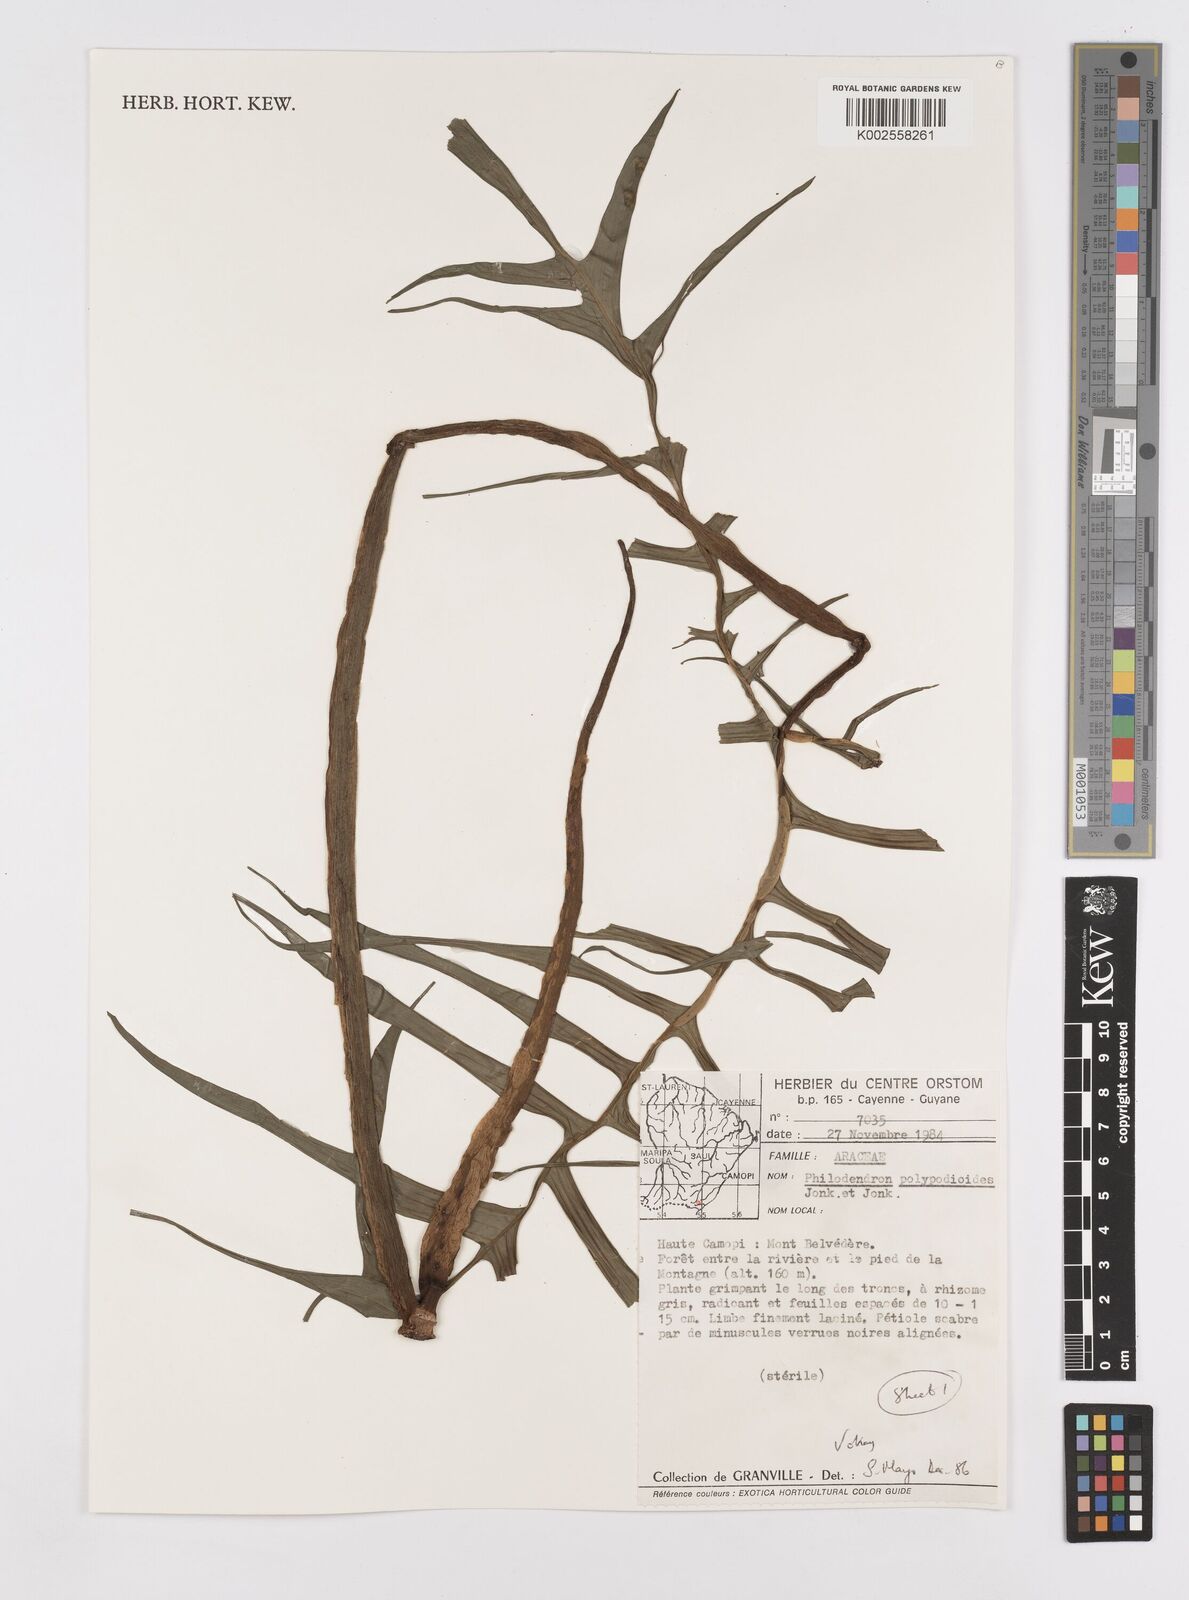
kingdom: Plantae
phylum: Tracheophyta
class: Liliopsida
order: Alismatales
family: Araceae
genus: Philodendron
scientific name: Philodendron pedatum
